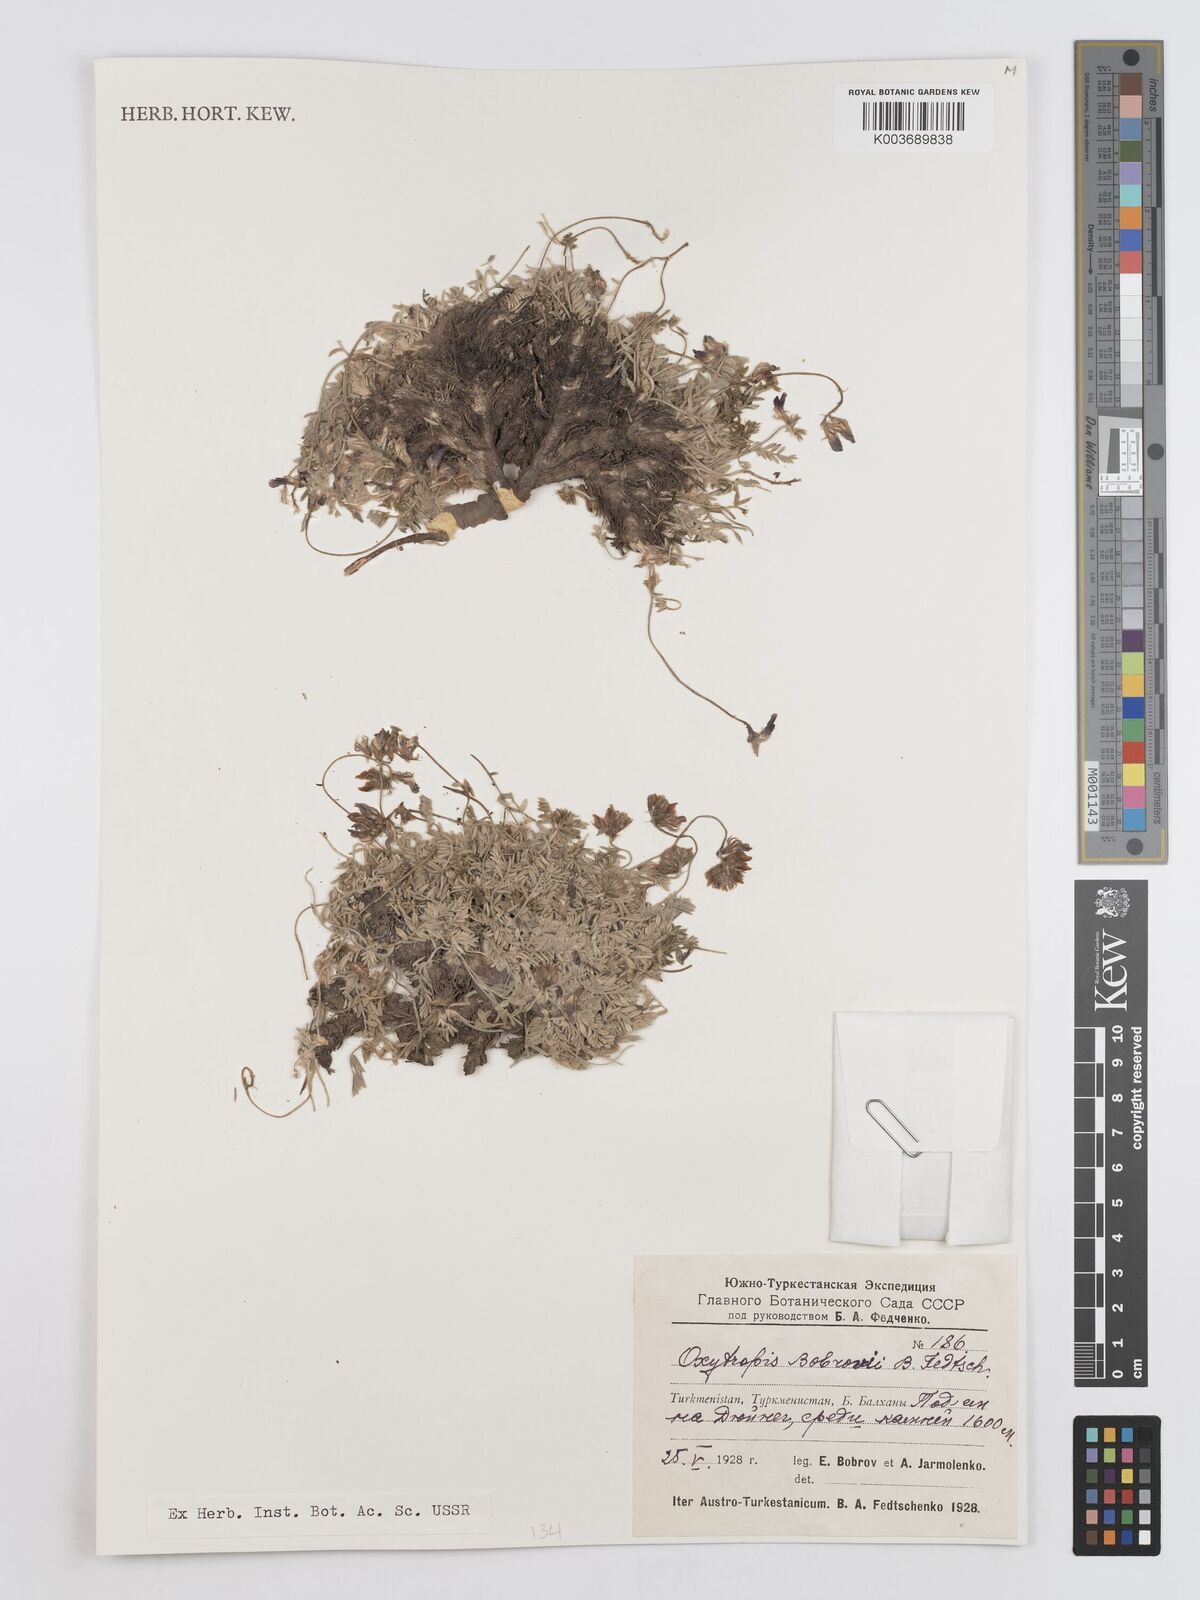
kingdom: Plantae
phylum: Tracheophyta
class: Magnoliopsida
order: Fabales
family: Fabaceae
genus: Oxytropis
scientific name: Oxytropis bobrovii
